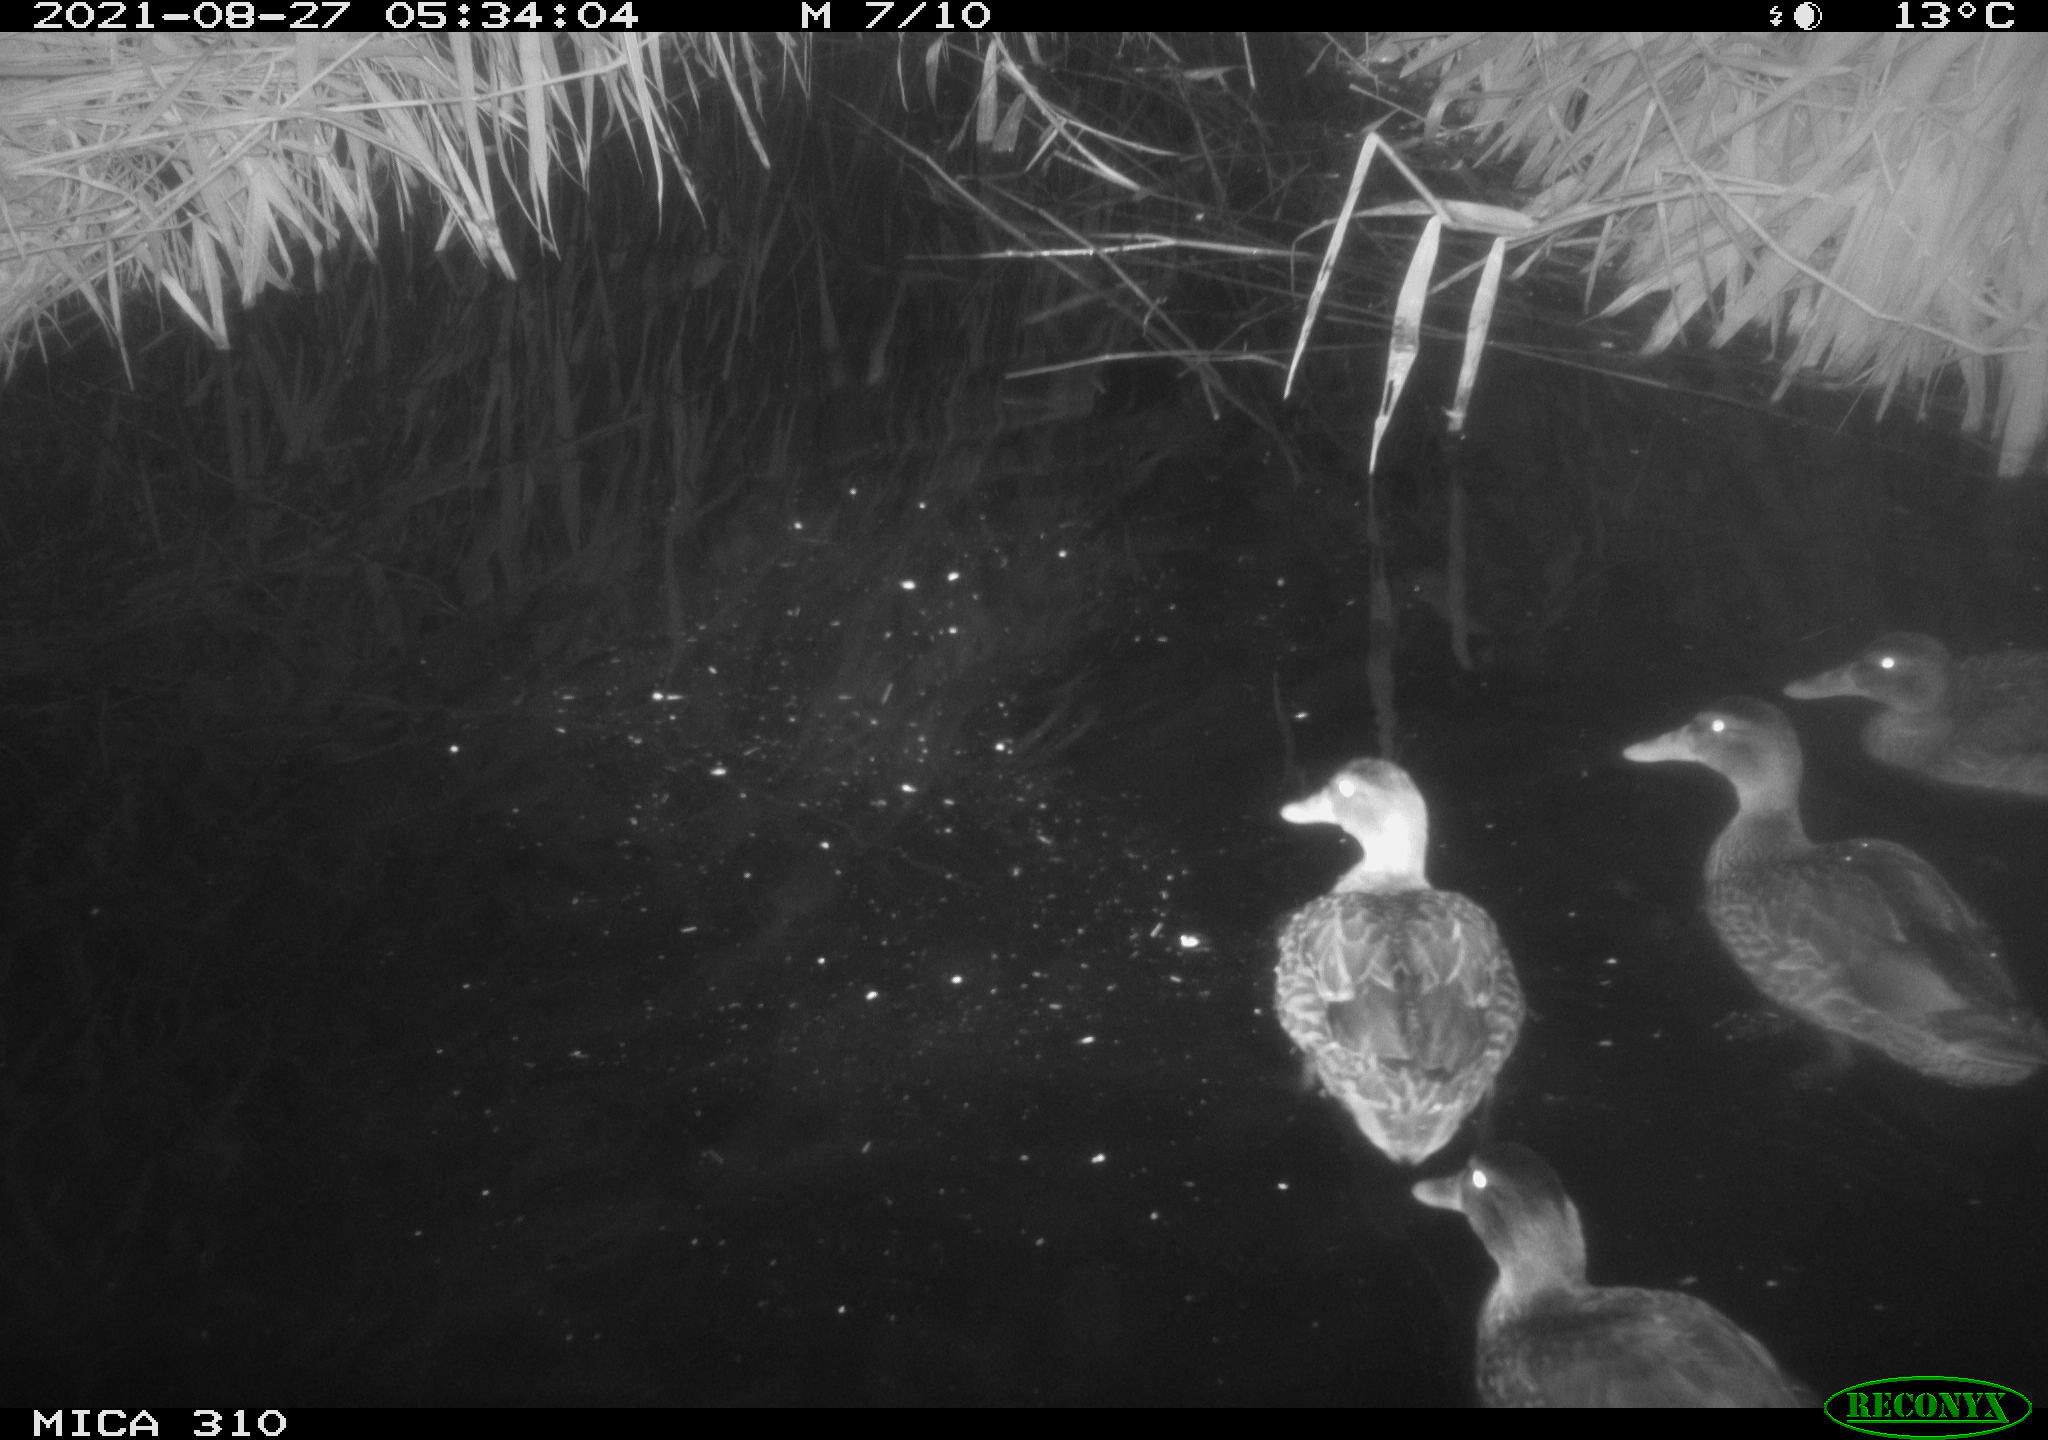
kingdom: Animalia
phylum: Chordata
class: Aves
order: Anseriformes
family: Anatidae
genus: Mareca
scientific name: Mareca strepera
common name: Gadwall
